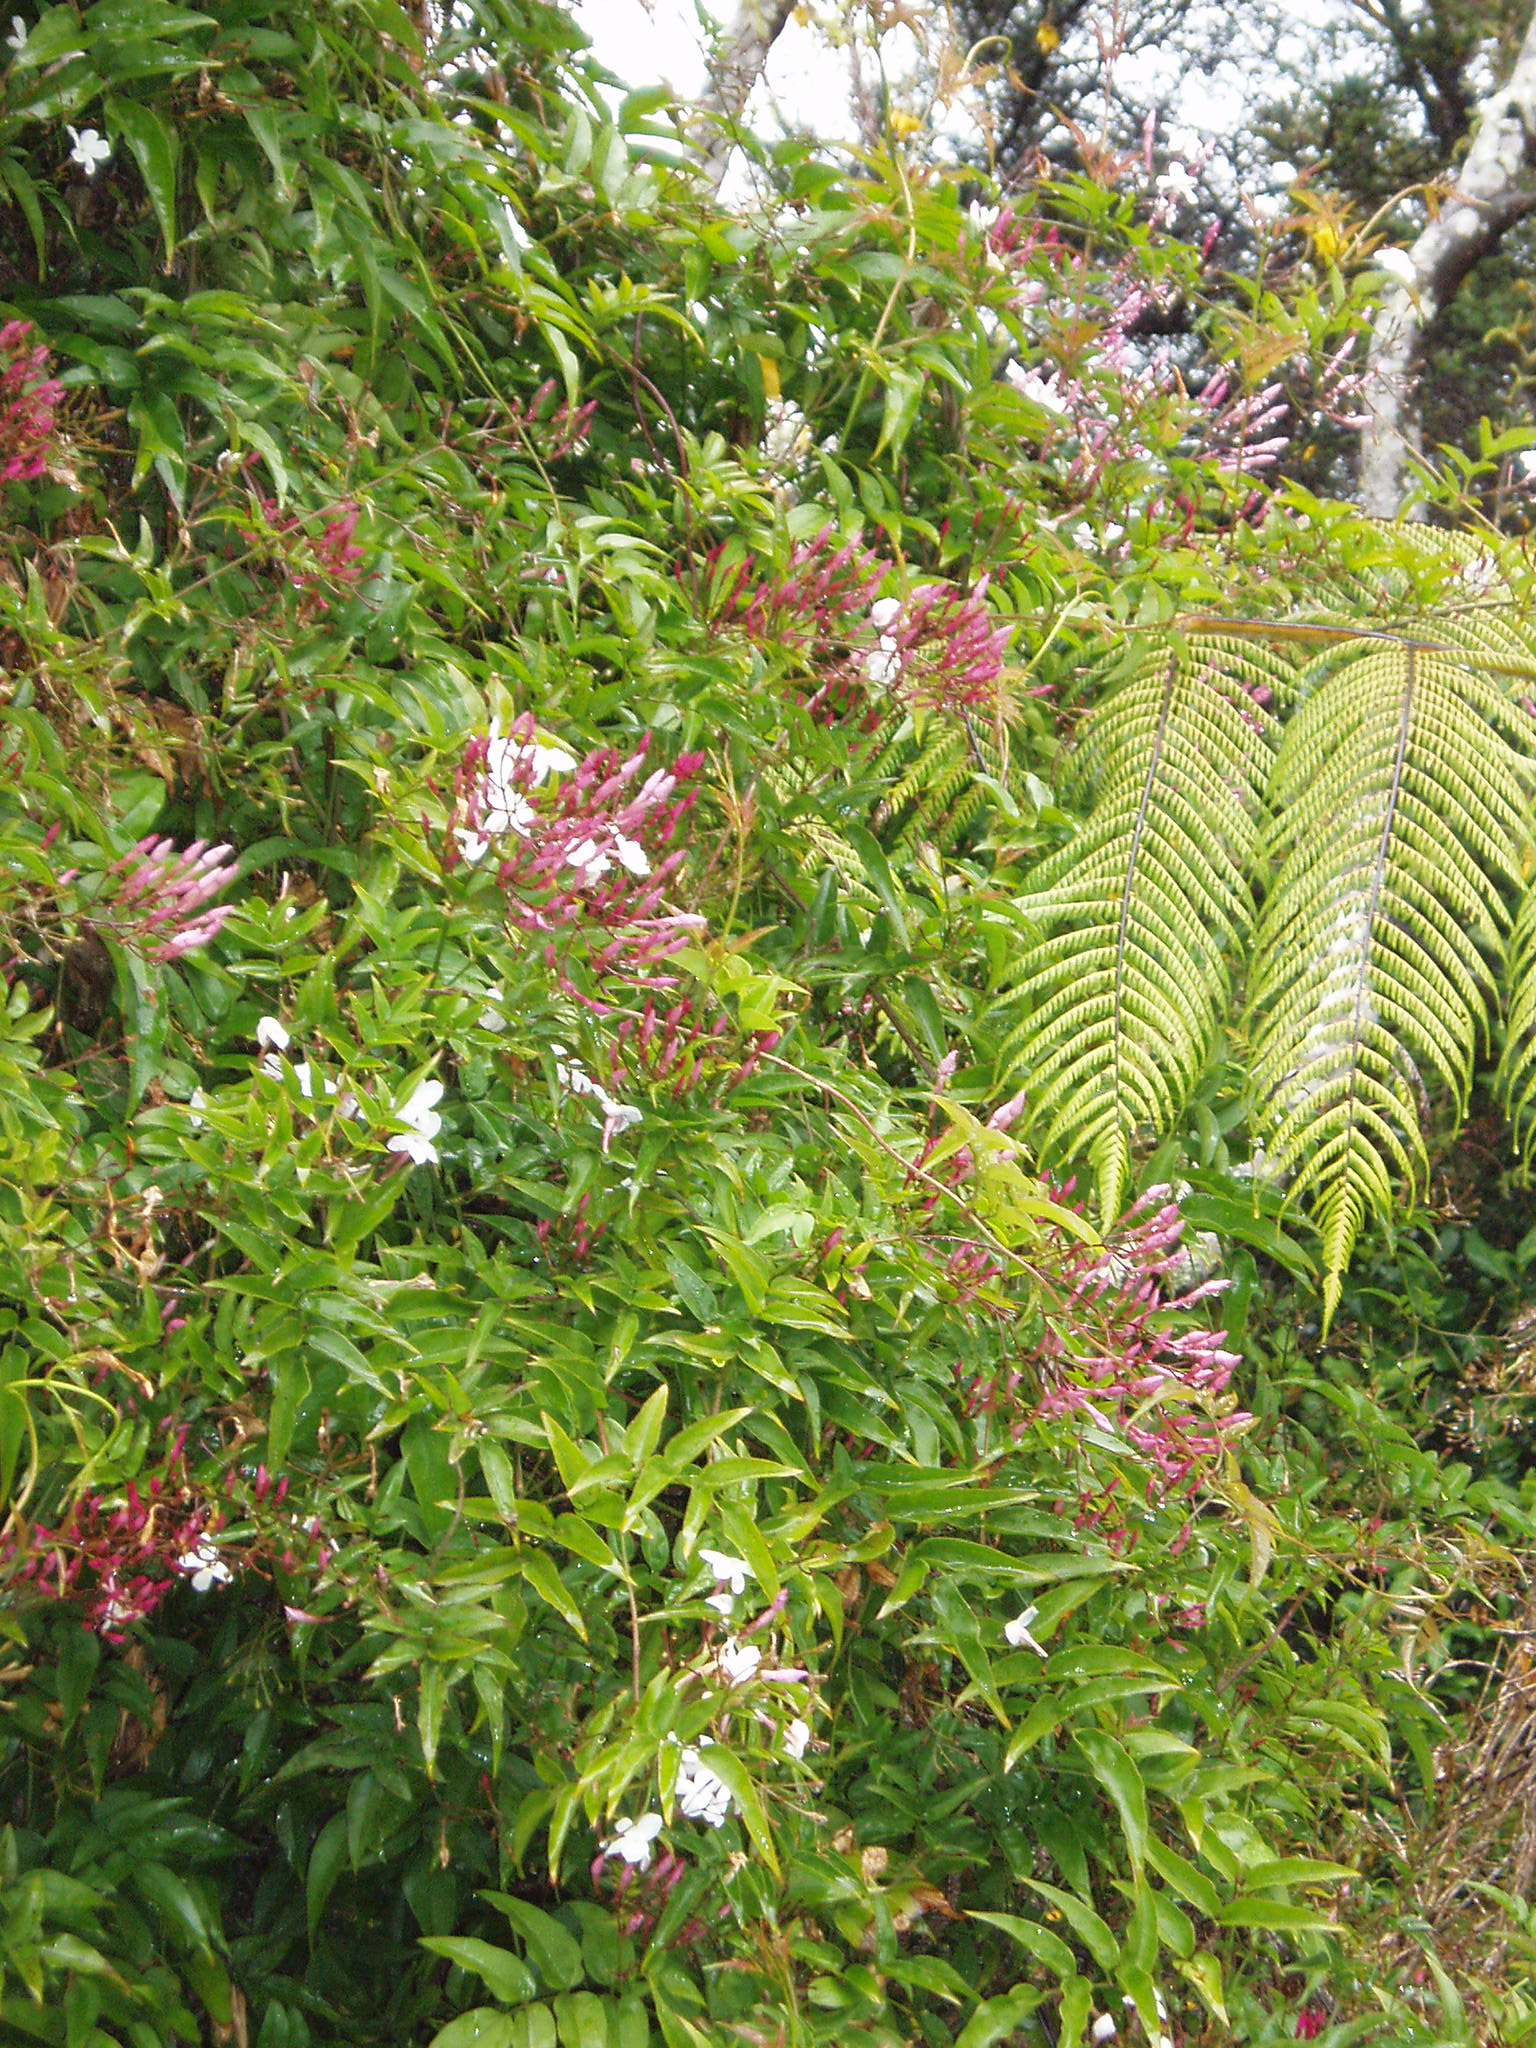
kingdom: Plantae
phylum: Tracheophyta
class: Magnoliopsida
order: Lamiales
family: Oleaceae
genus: Jasminum
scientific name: Jasminum polyanthum
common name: Pink jasmine
